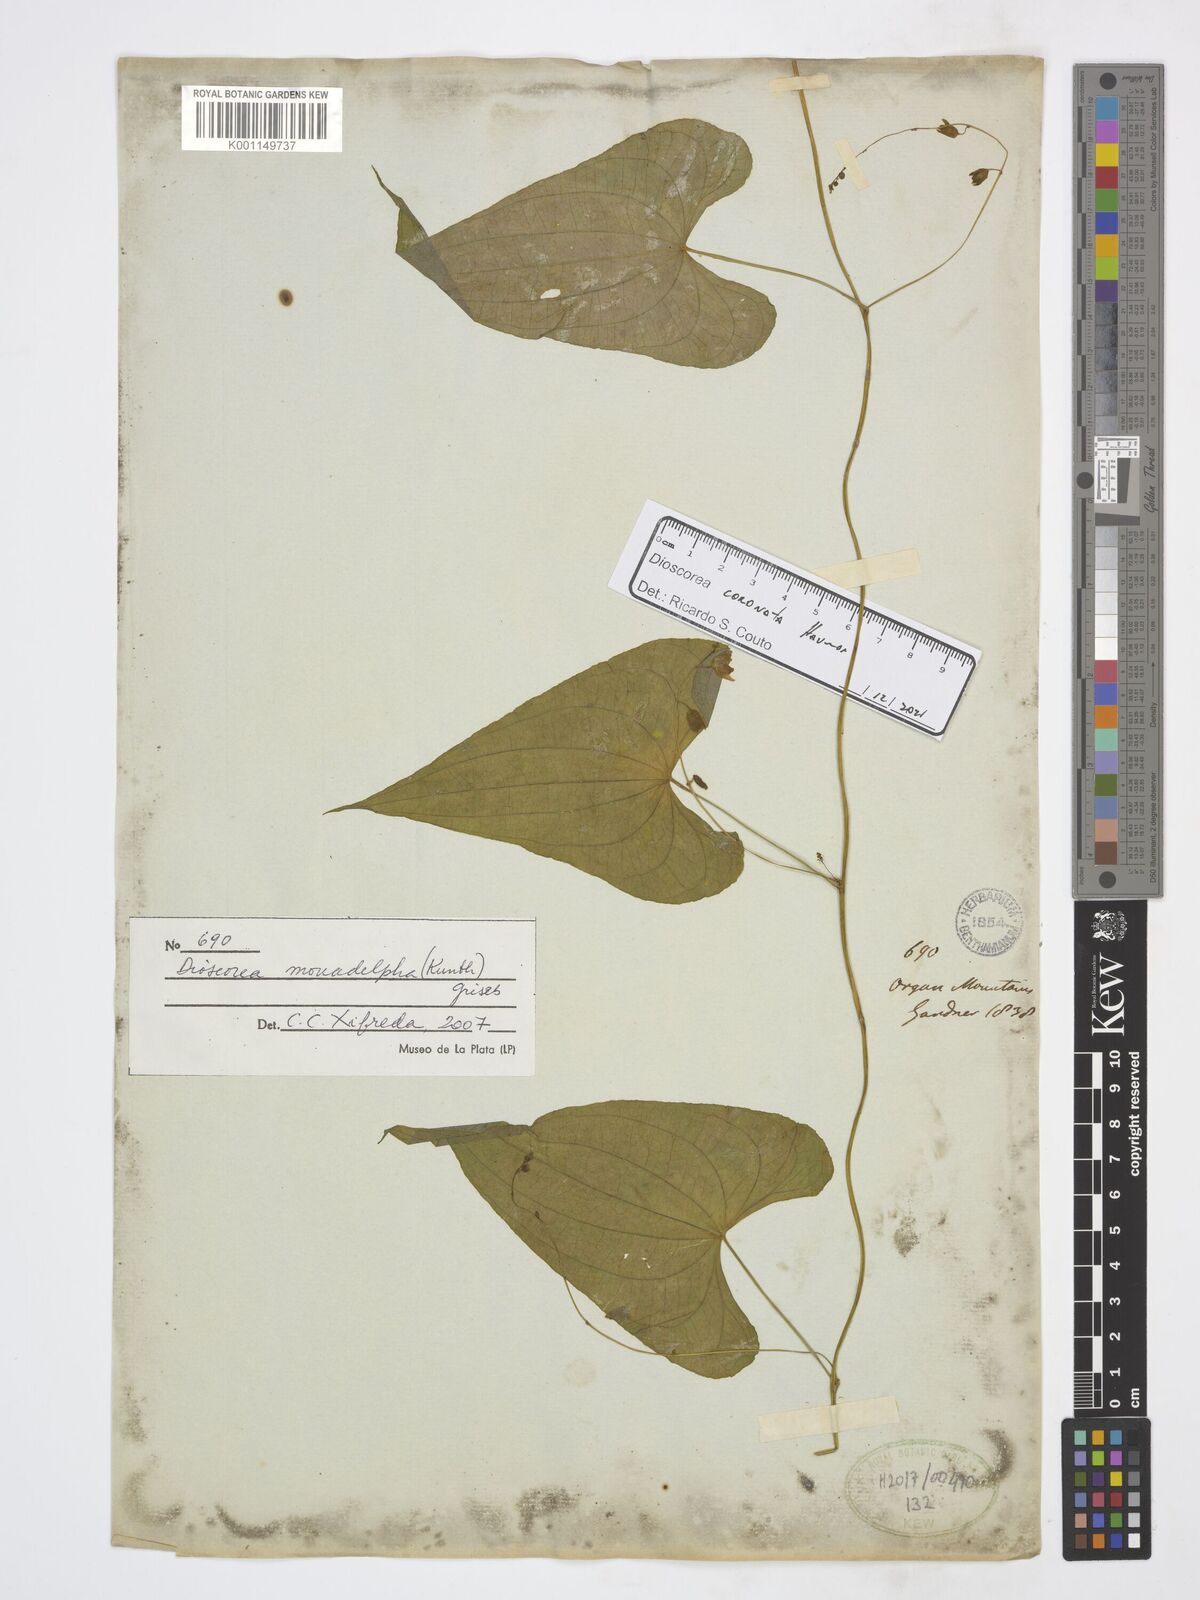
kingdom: Plantae
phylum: Tracheophyta
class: Liliopsida
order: Dioscoreales
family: Dioscoreaceae
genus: Dioscorea
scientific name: Dioscorea coronata
